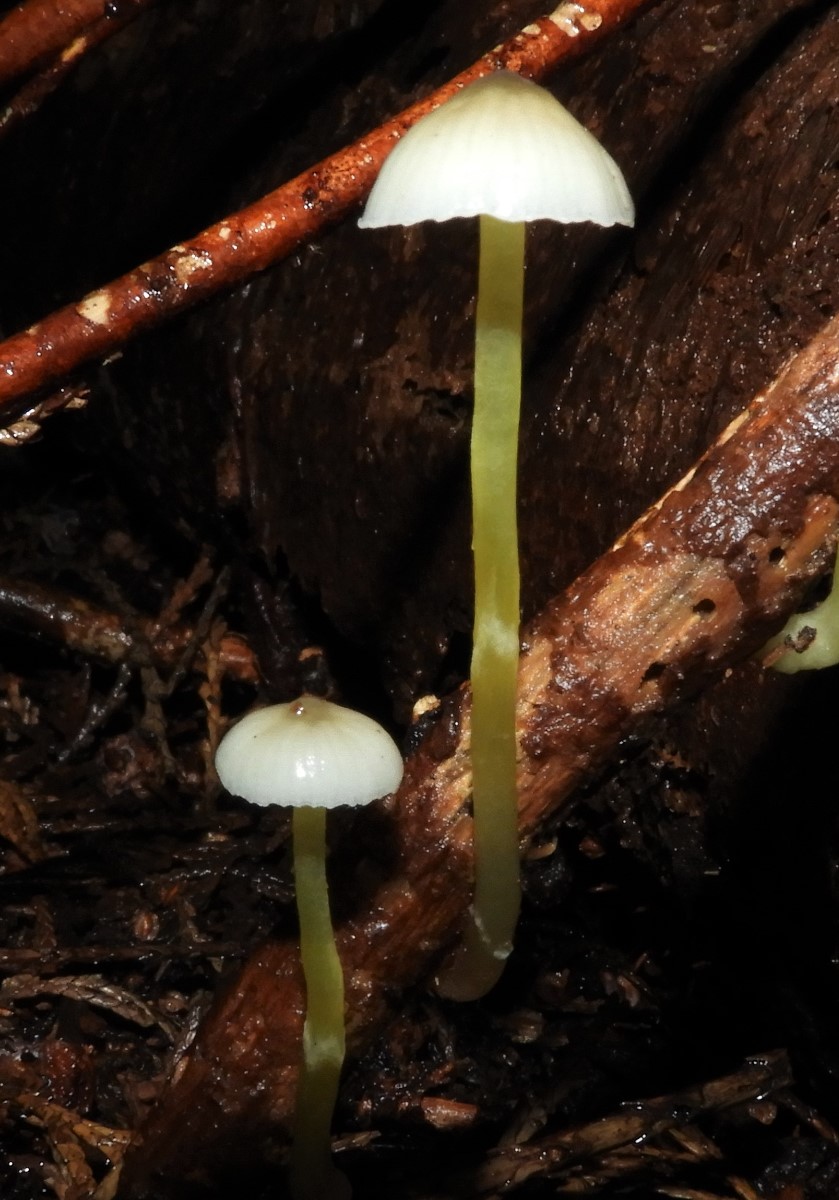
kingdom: Fungi
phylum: Basidiomycota
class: Agaricomycetes
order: Agaricales
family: Mycenaceae
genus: Mycena
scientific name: Mycena epipterygia
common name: gulstokket huesvamp
